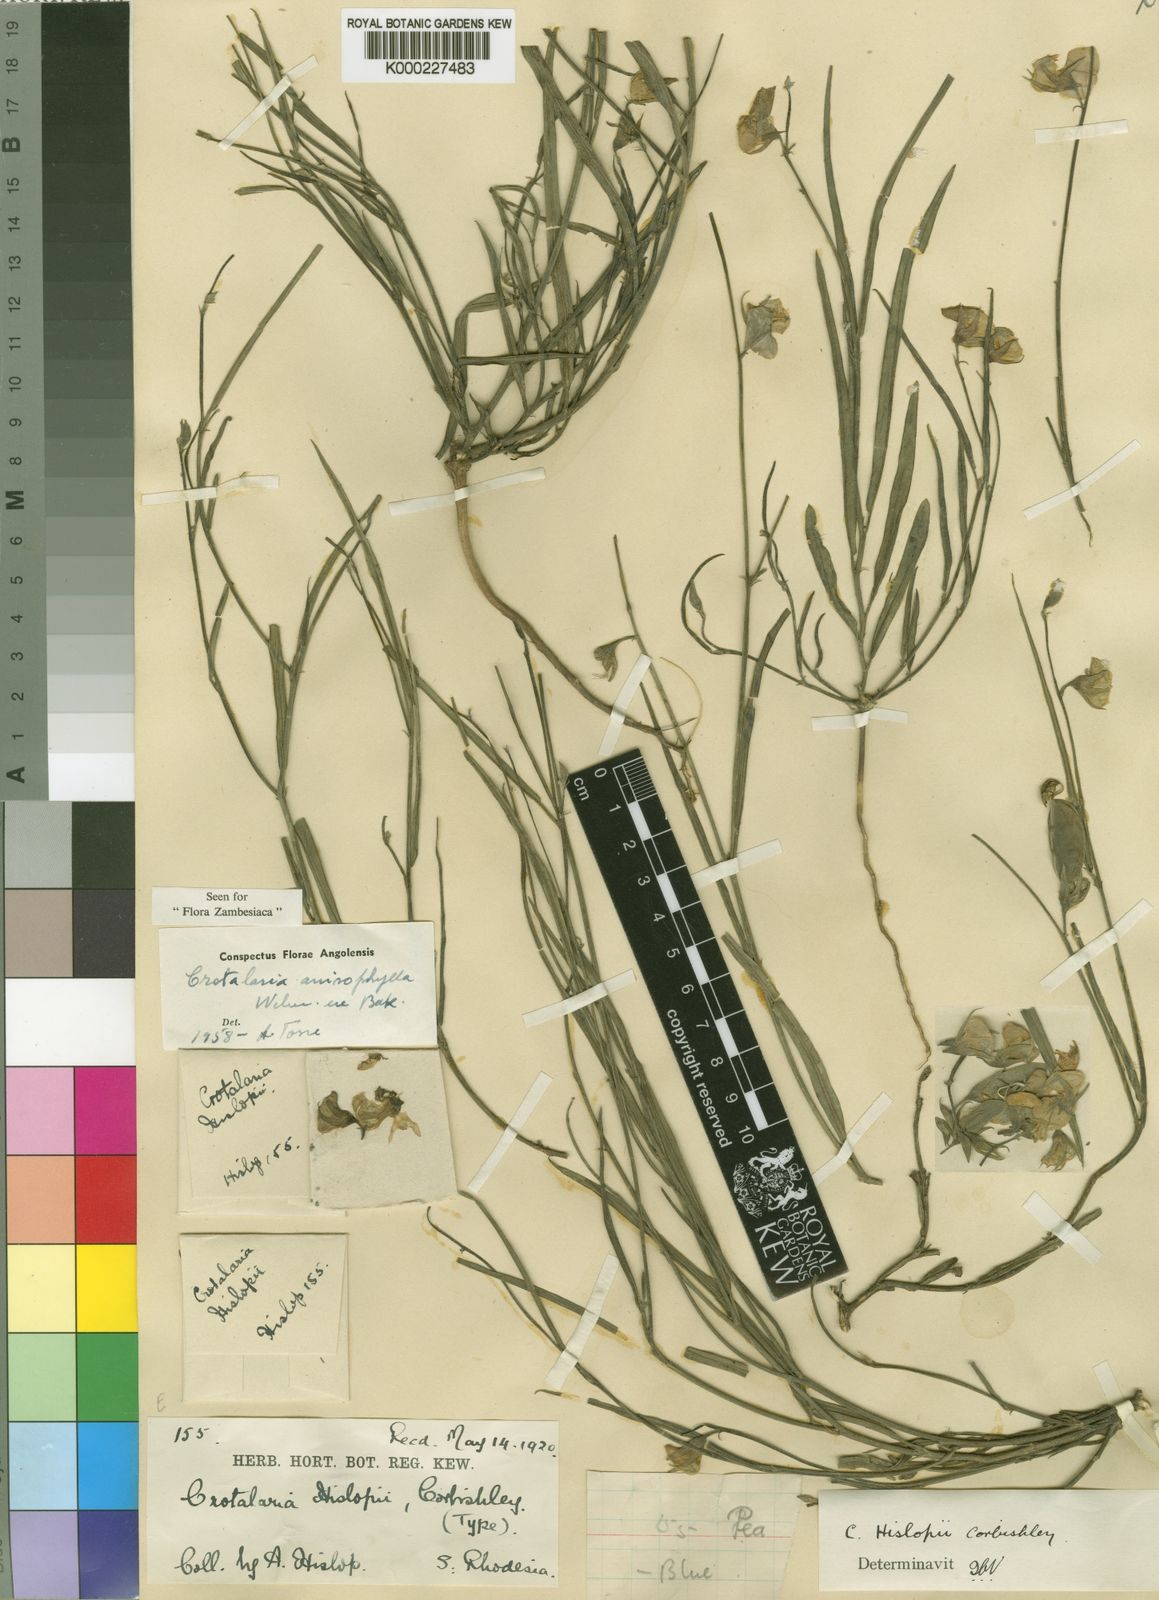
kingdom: Plantae
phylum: Tracheophyta
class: Magnoliopsida
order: Fabales
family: Fabaceae
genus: Crotalaria
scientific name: Crotalaria anisophylla
